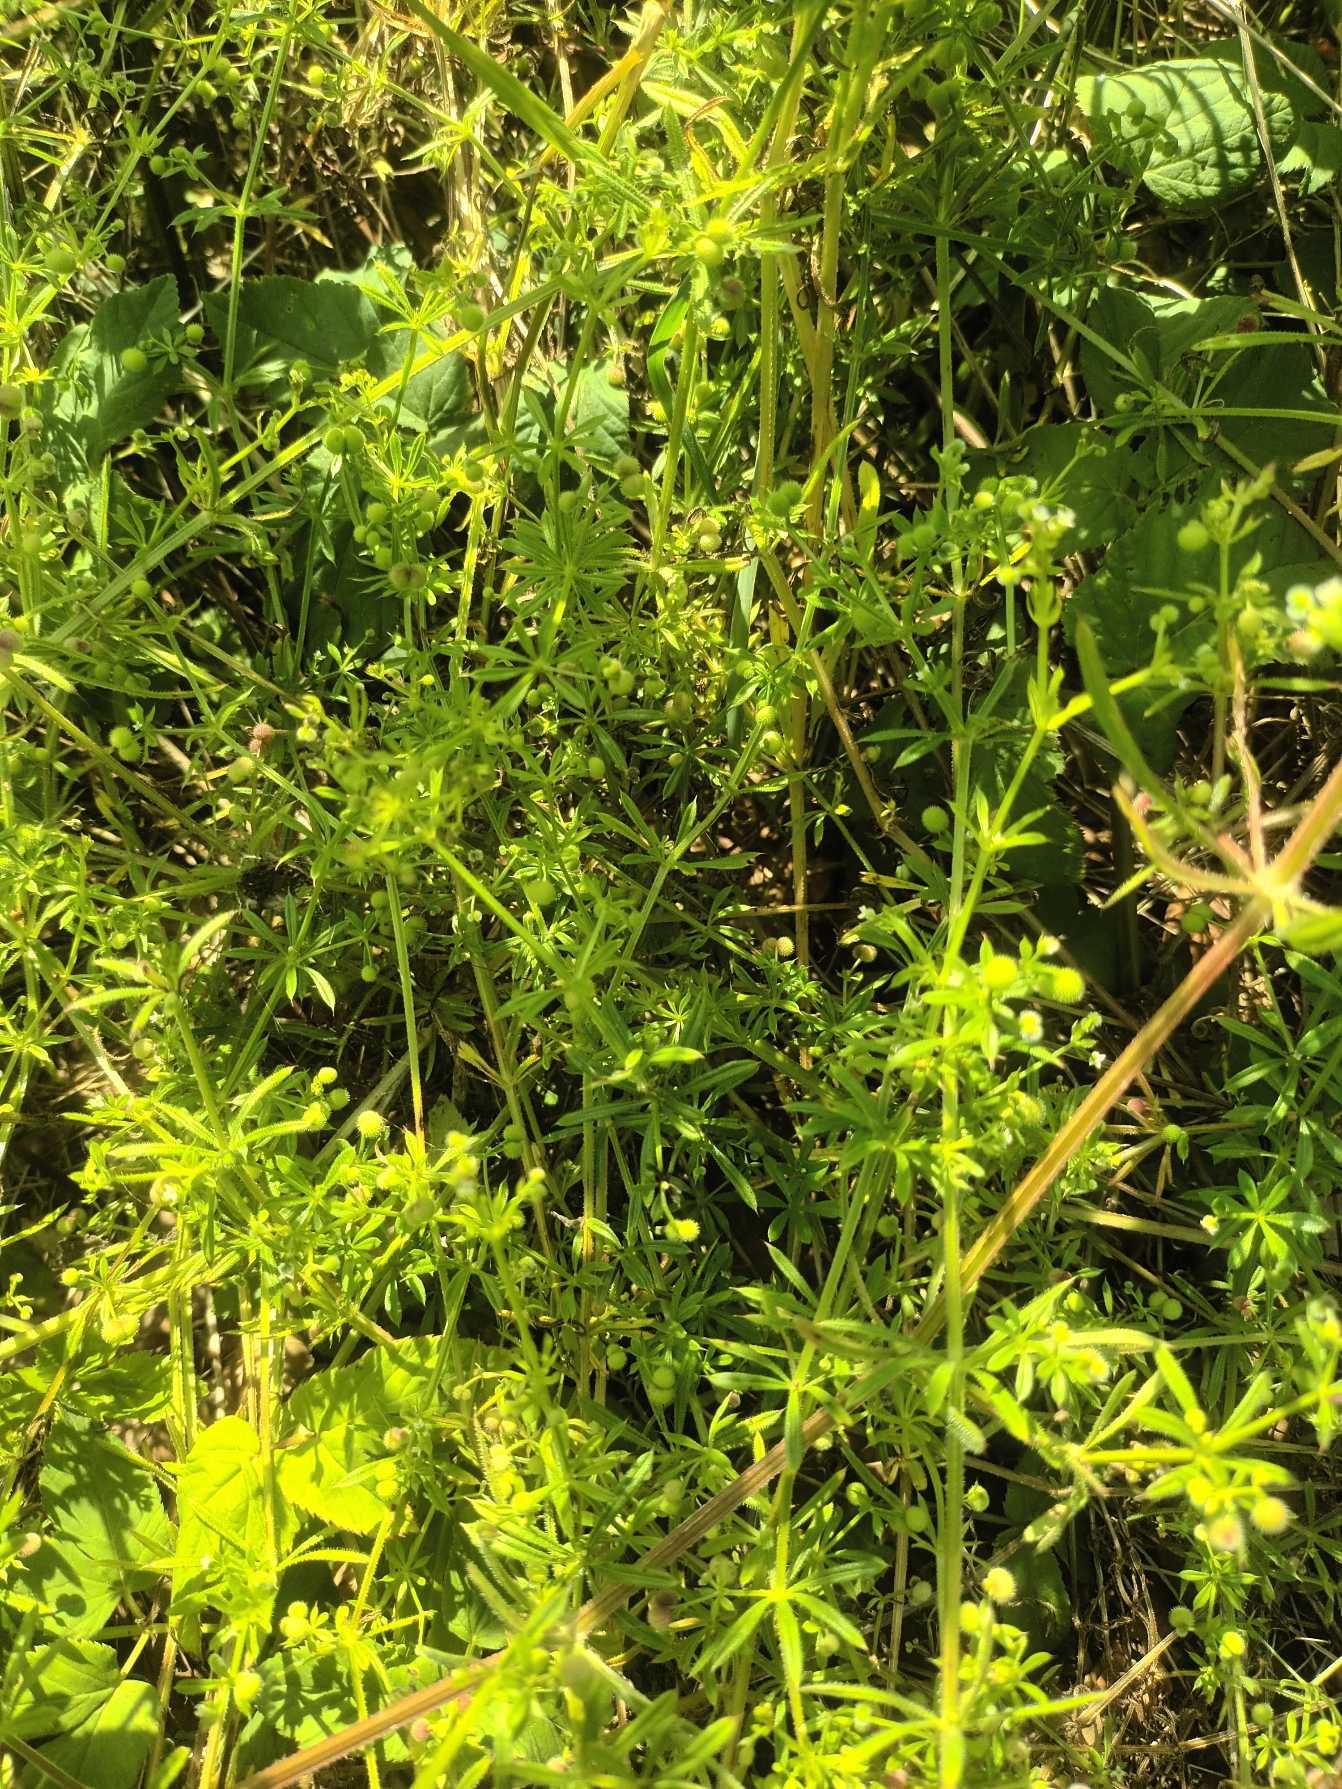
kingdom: Plantae
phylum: Tracheophyta
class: Magnoliopsida
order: Gentianales
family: Rubiaceae
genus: Galium
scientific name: Galium aparine
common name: Burre-snerre
